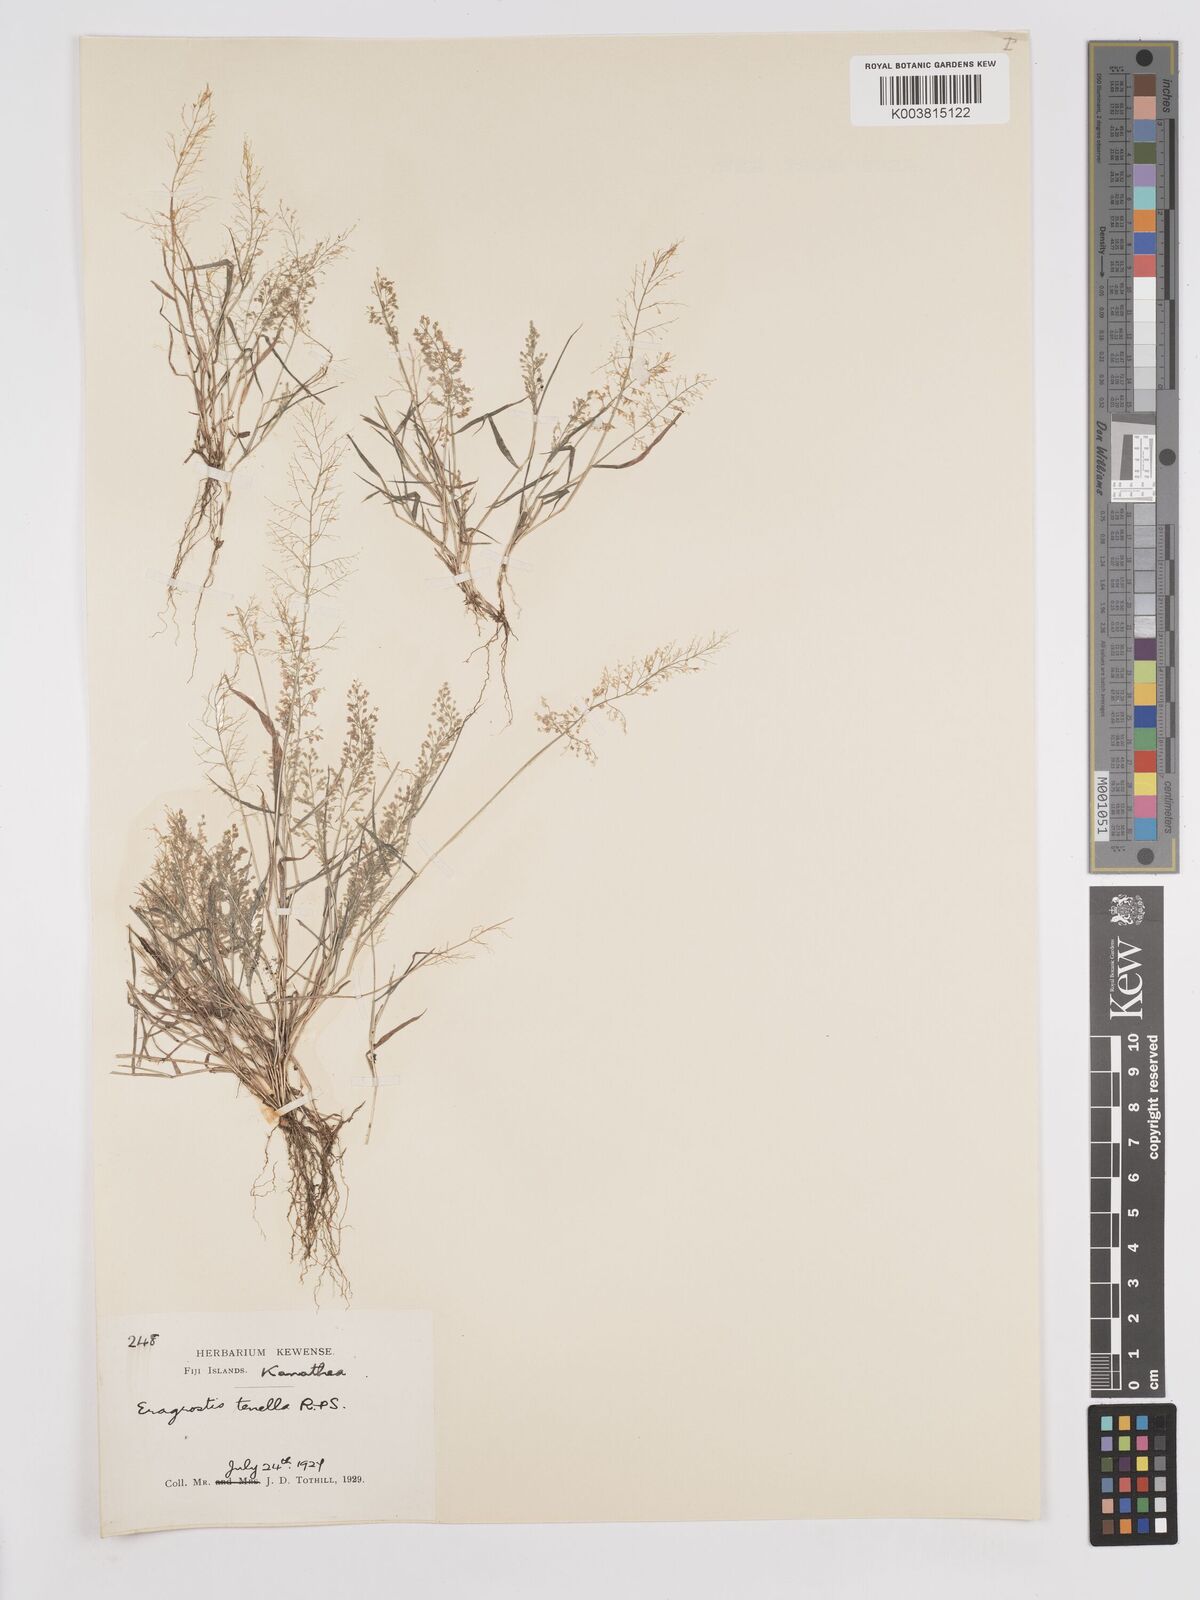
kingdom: Plantae
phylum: Tracheophyta
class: Liliopsida
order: Poales
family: Poaceae
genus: Eragrostis
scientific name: Eragrostis tenella
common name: Japanese lovegrass
